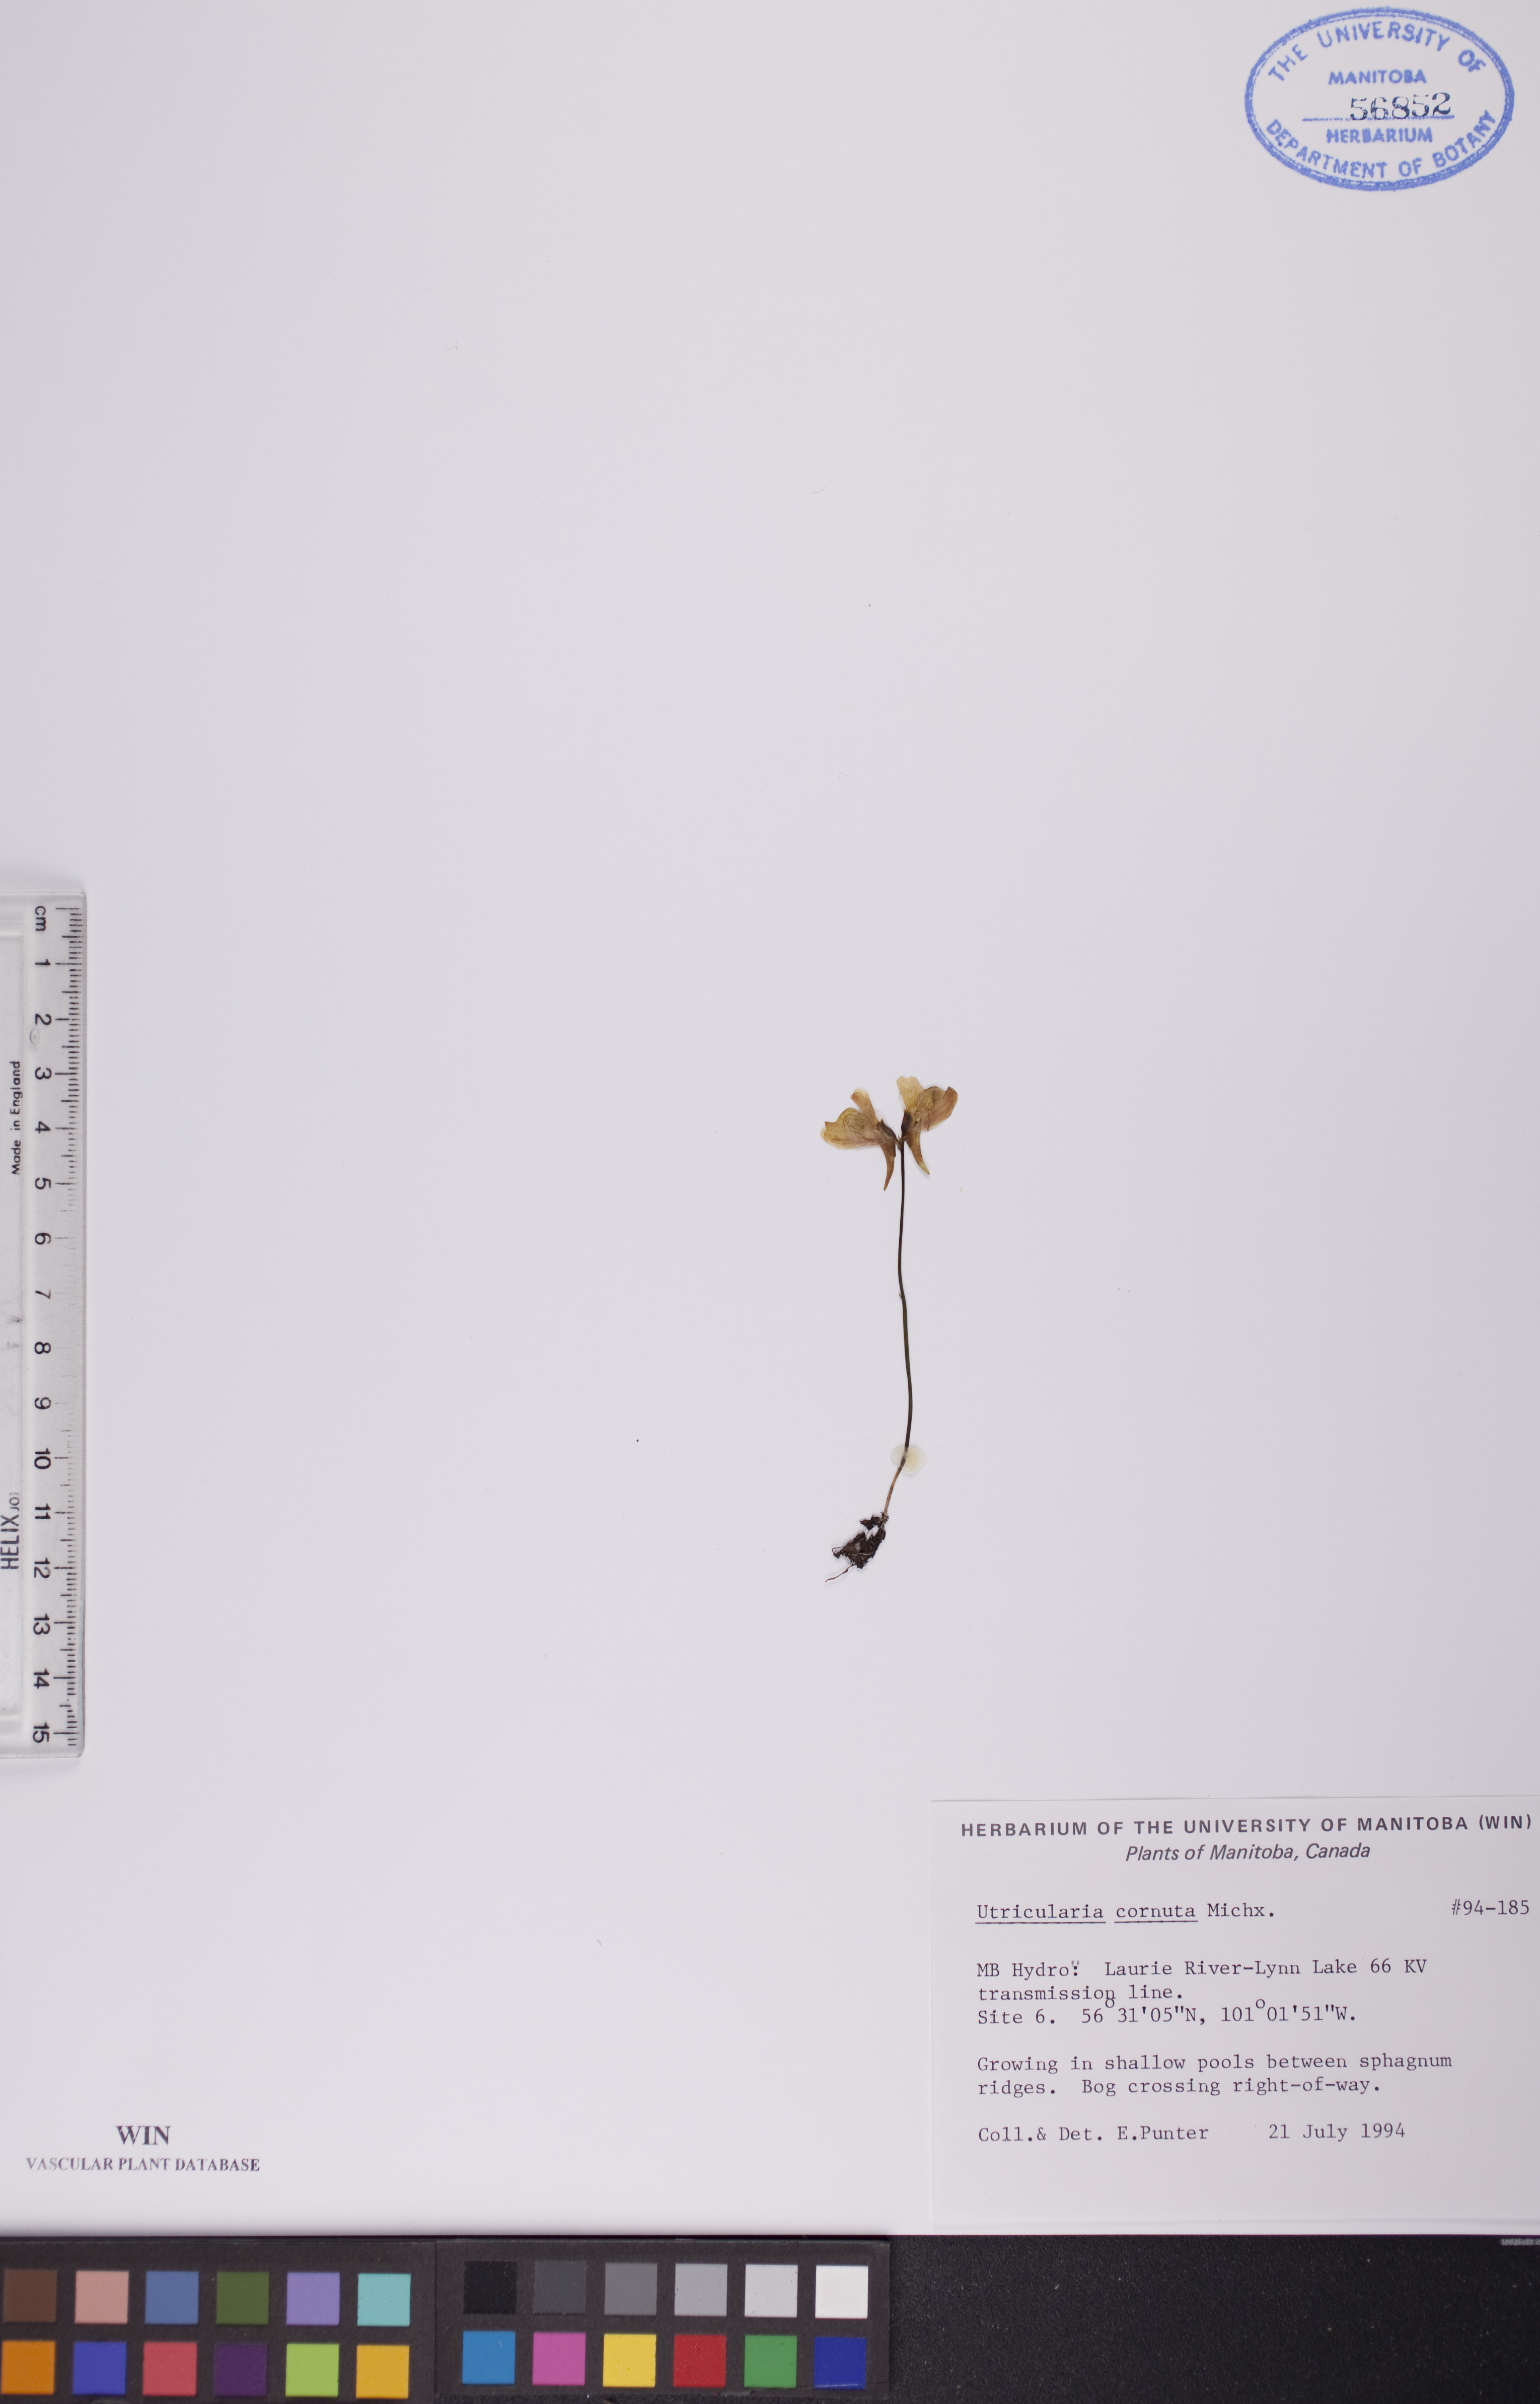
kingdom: Plantae
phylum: Tracheophyta
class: Magnoliopsida
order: Lamiales
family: Lentibulariaceae
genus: Utricularia
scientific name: Utricularia cornuta
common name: Horned bladderwort
